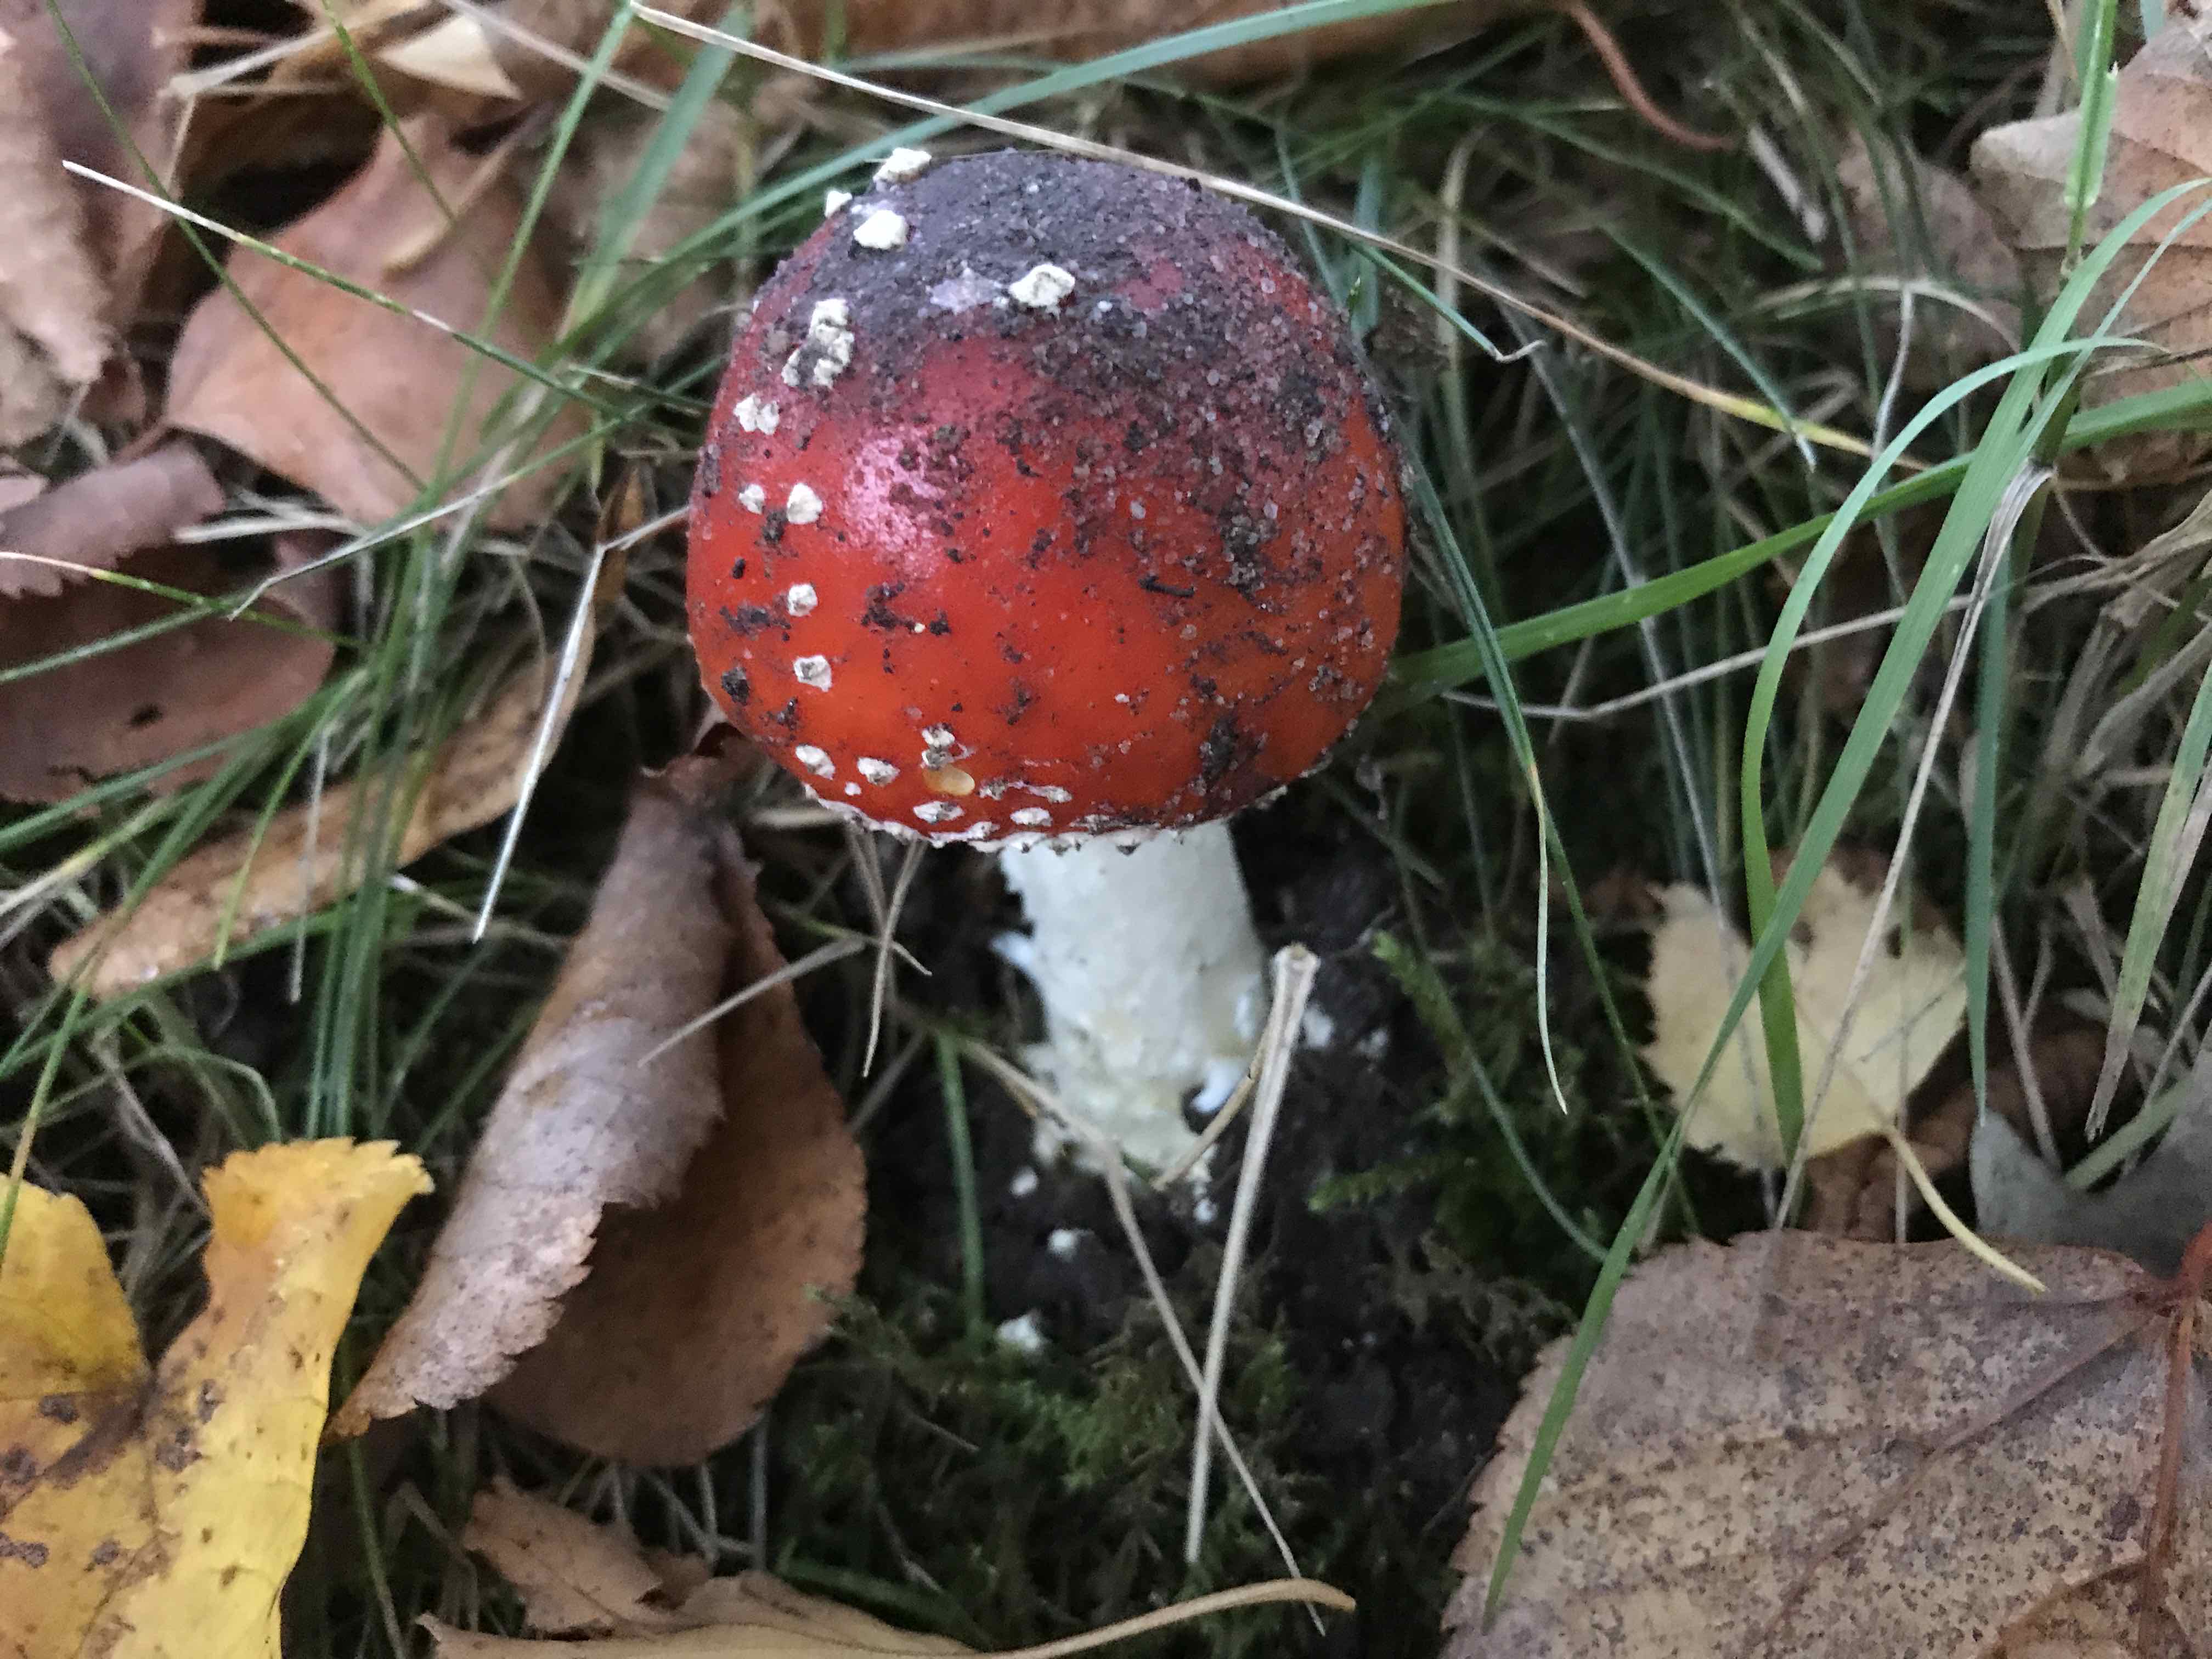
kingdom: Fungi
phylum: Basidiomycota
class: Agaricomycetes
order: Agaricales
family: Amanitaceae
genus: Amanita
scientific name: Amanita muscaria
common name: rød fluesvamp
